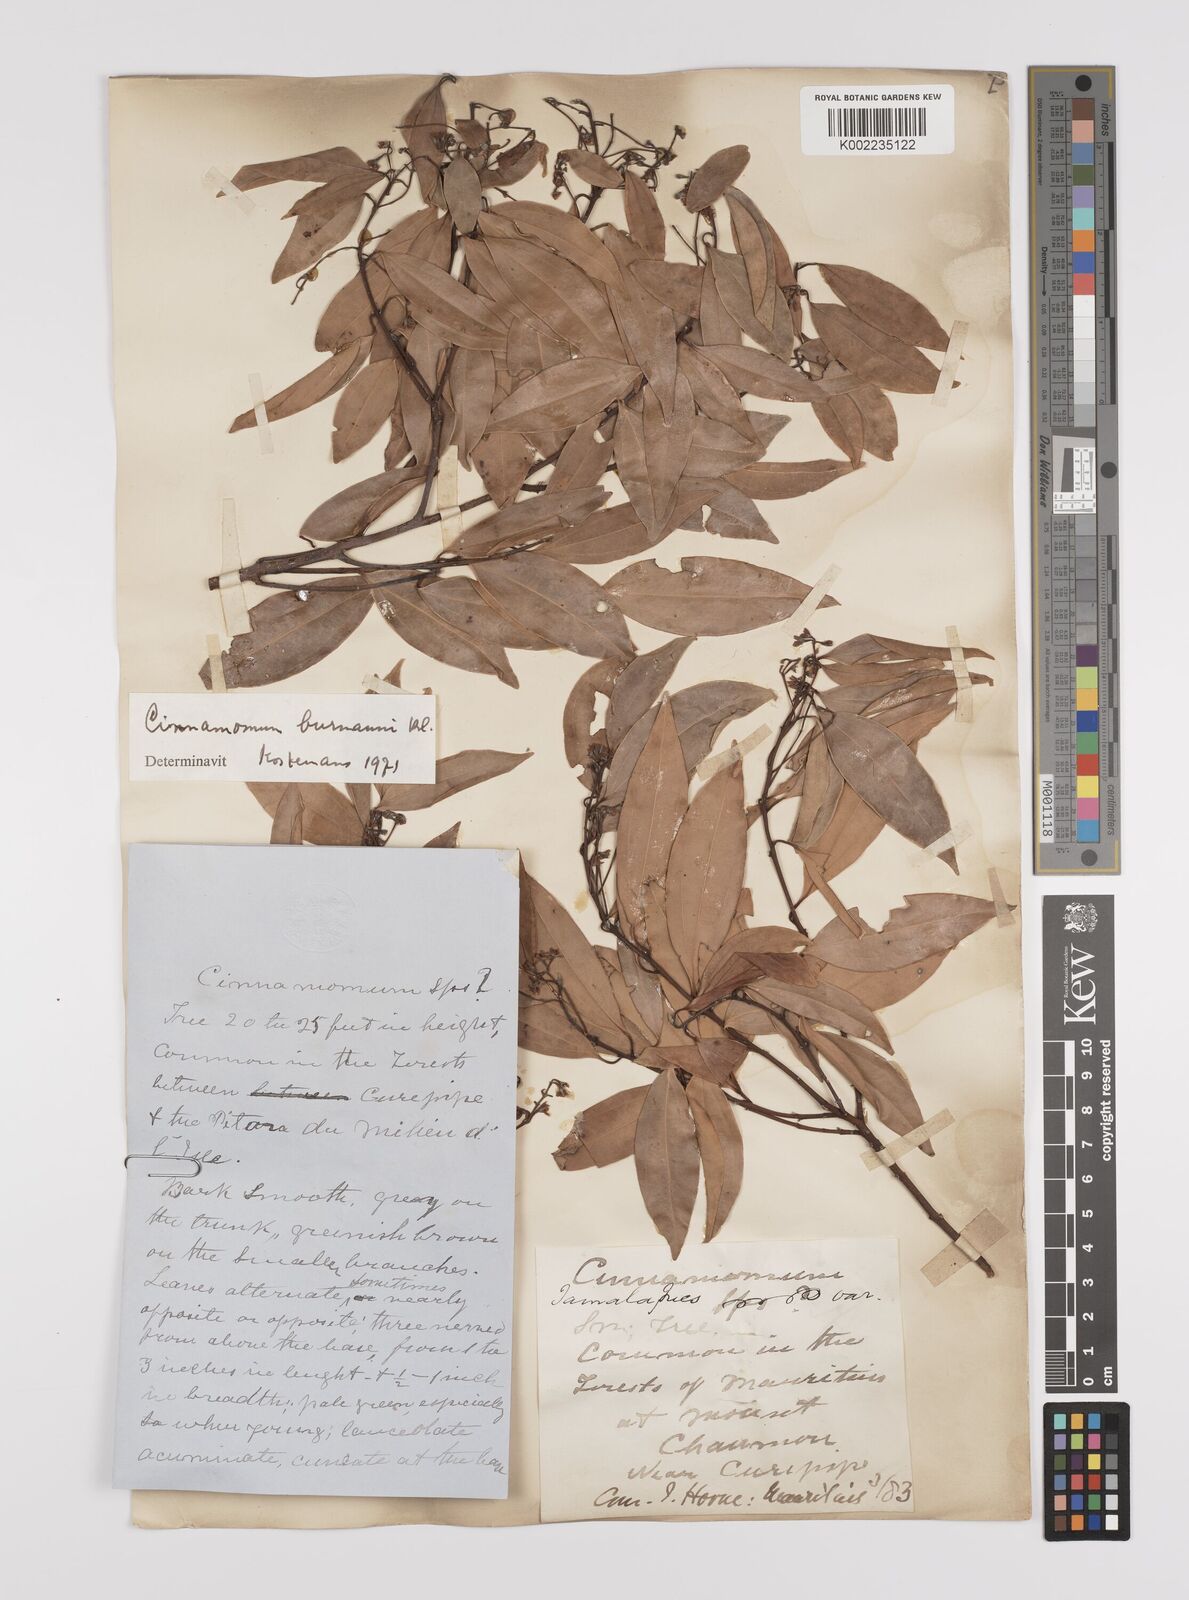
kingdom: Plantae
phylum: Tracheophyta
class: Magnoliopsida
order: Laurales
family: Lauraceae
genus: Cinnamomum
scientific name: Cinnamomum burmanni
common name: Padang cassia
